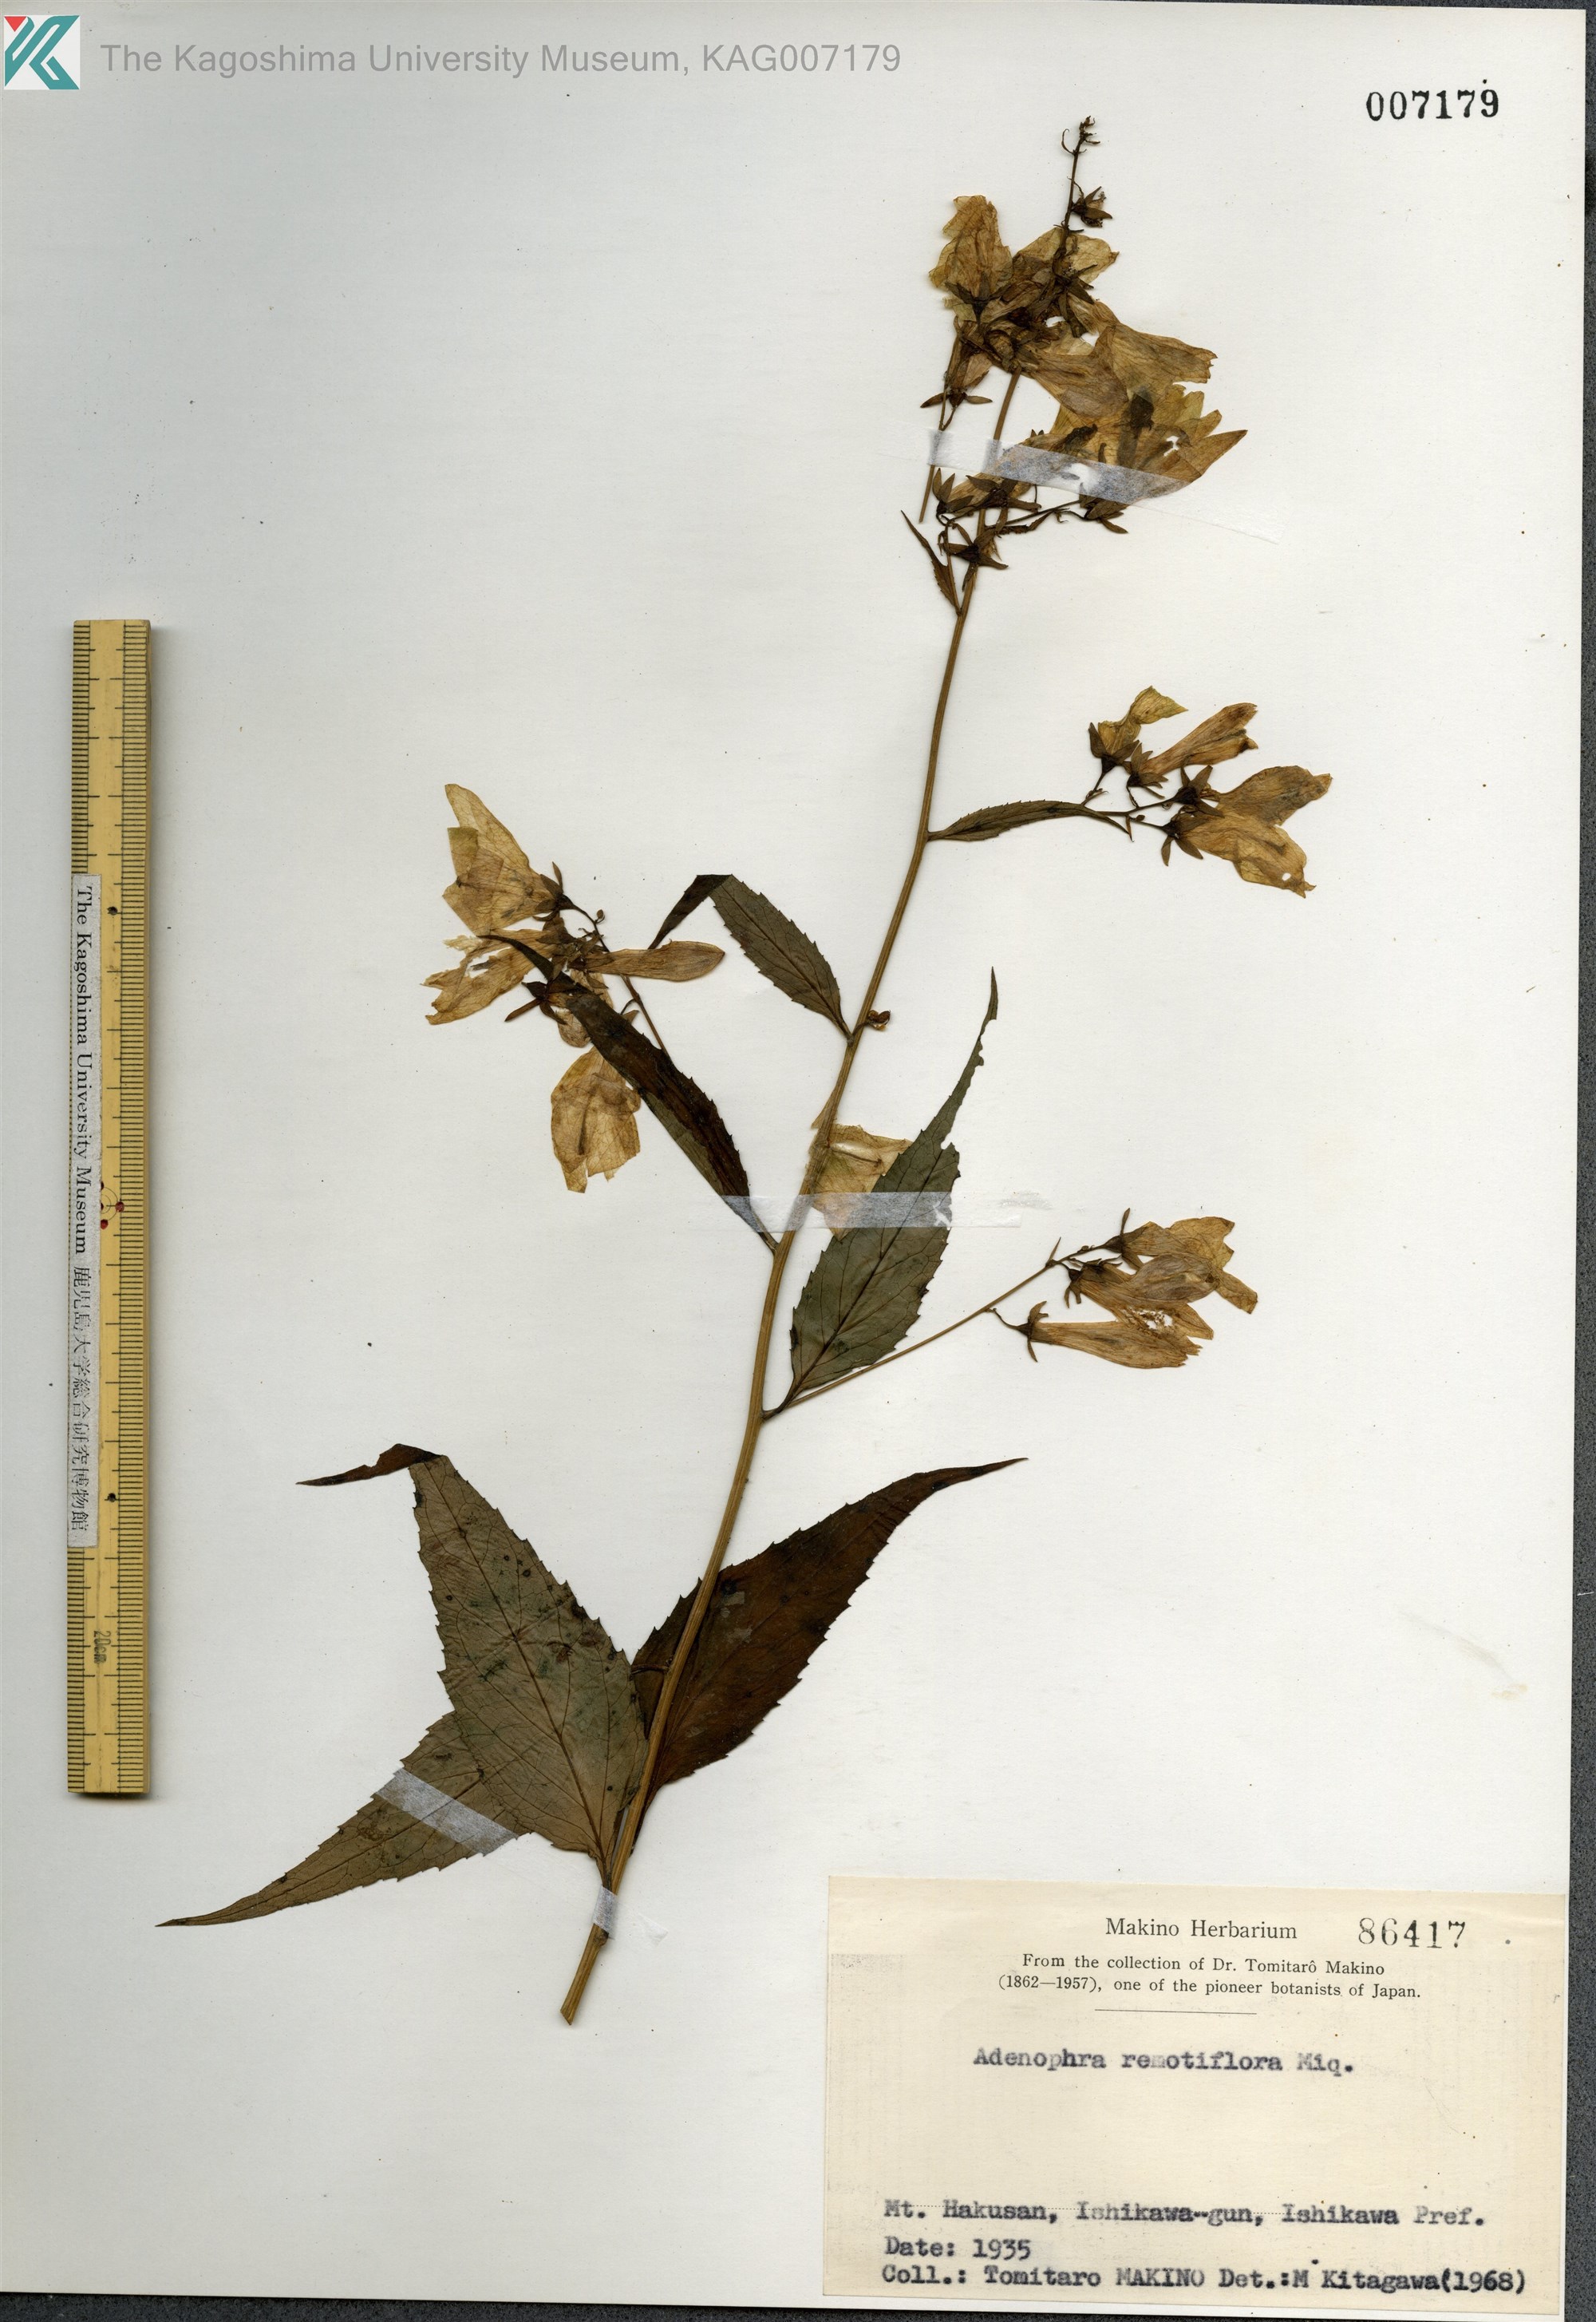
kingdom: Plantae
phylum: Tracheophyta
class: Magnoliopsida
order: Asterales
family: Campanulaceae
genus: Adenophora
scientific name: Adenophora remotiflora
